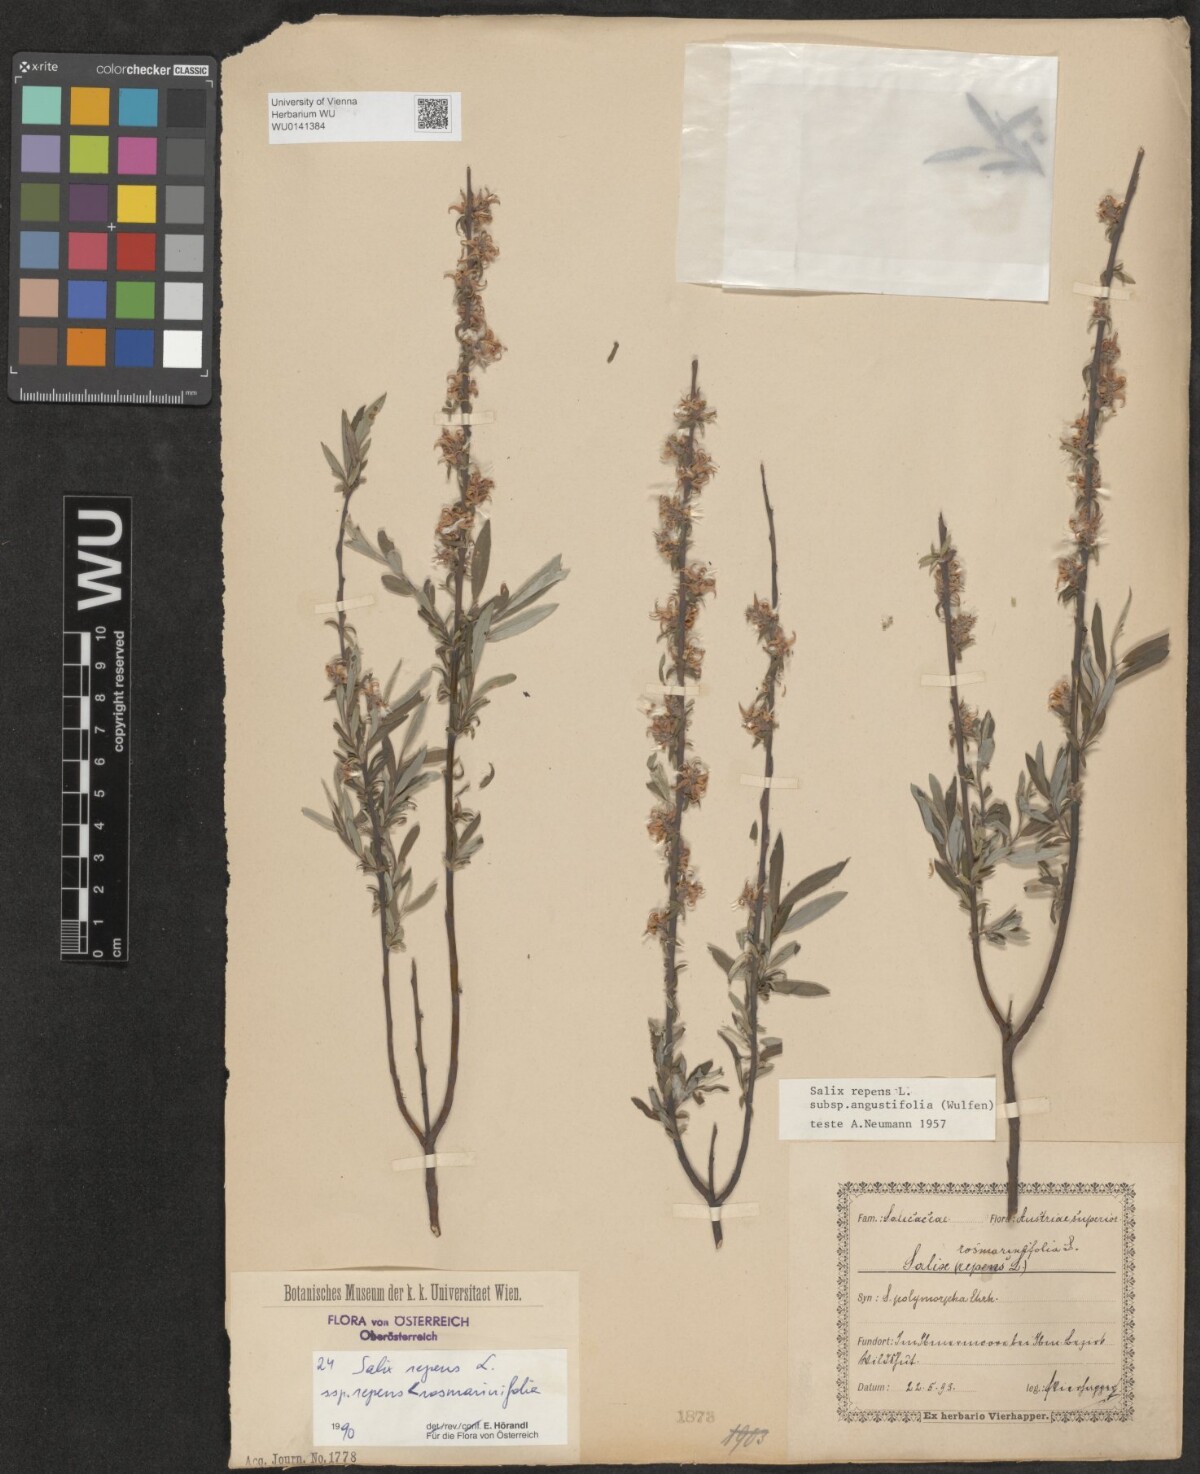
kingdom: Plantae
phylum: Tracheophyta
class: Magnoliopsida
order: Malpighiales
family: Salicaceae
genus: Salix
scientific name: Salix repens
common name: Creeping willow
